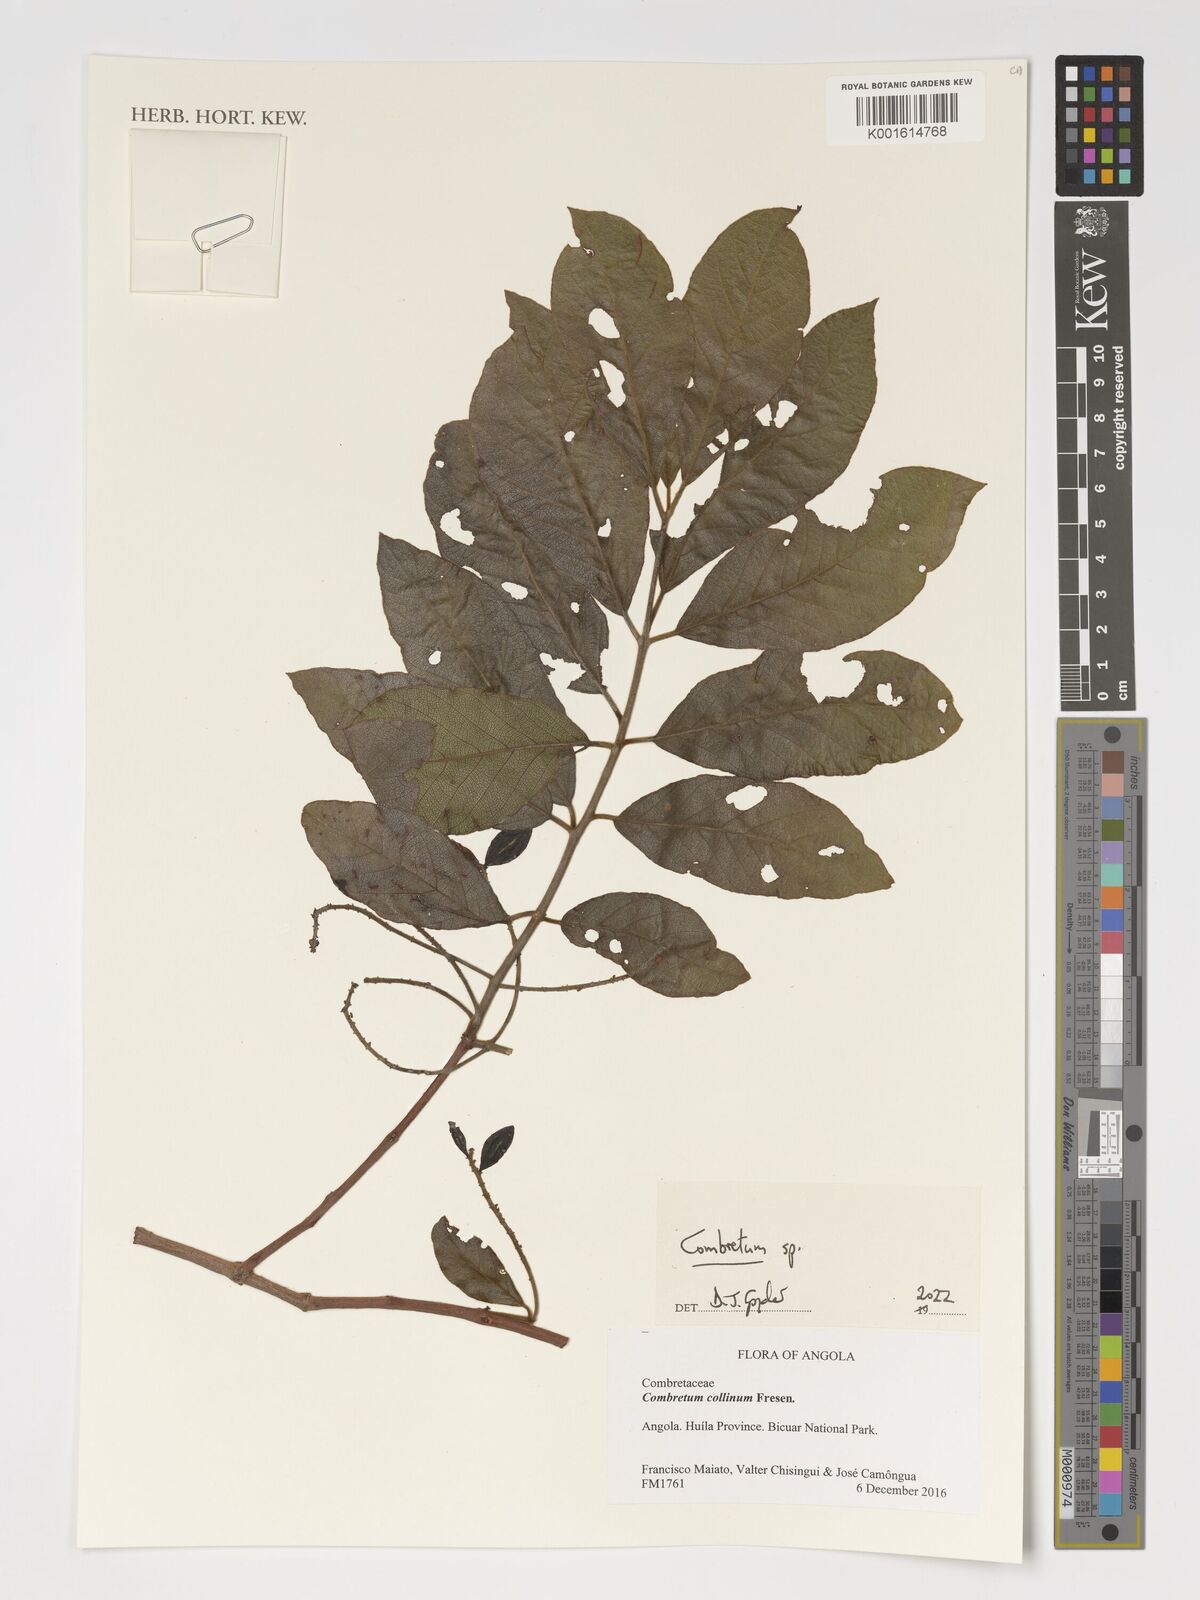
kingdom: Plantae
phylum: Tracheophyta
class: Magnoliopsida
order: Myrtales
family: Combretaceae
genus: Combretum
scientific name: Combretum
